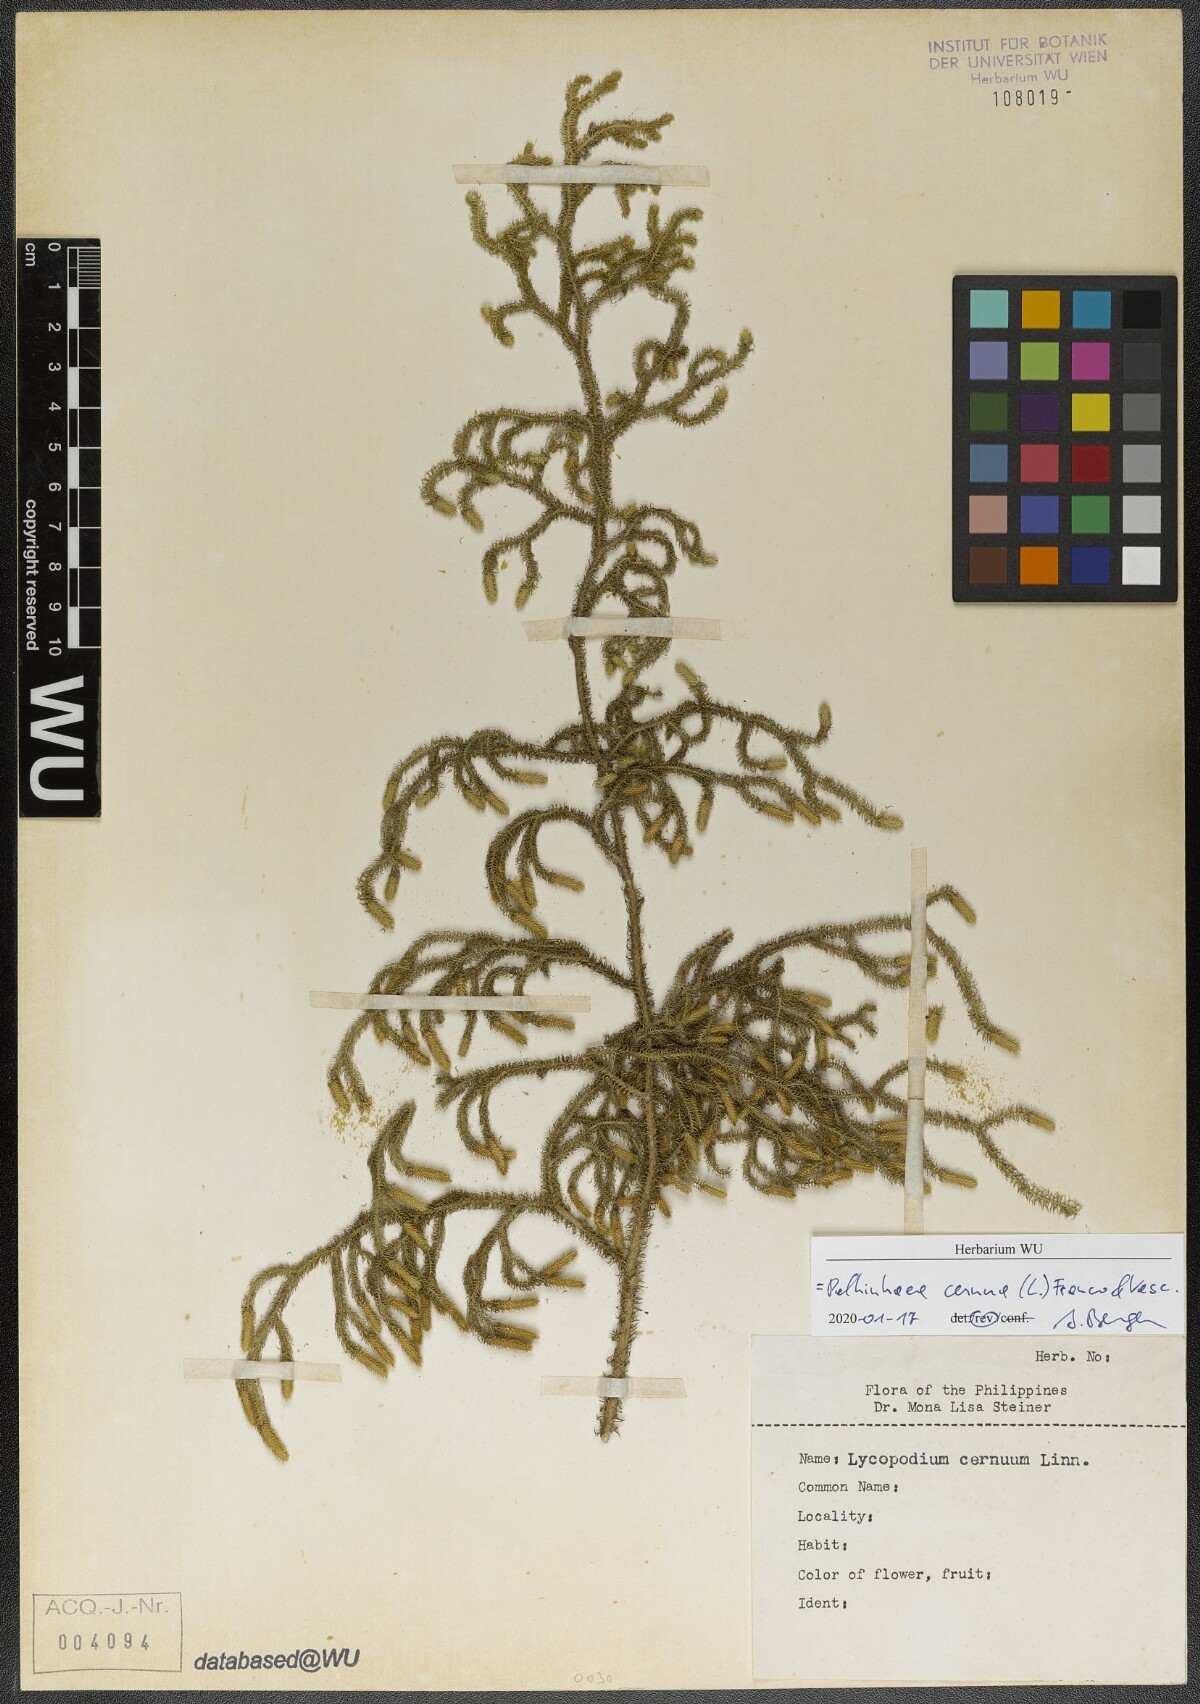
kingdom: Plantae
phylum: Tracheophyta
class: Lycopodiopsida
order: Lycopodiales
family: Lycopodiaceae
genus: Palhinhaea
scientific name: Palhinhaea cernua
